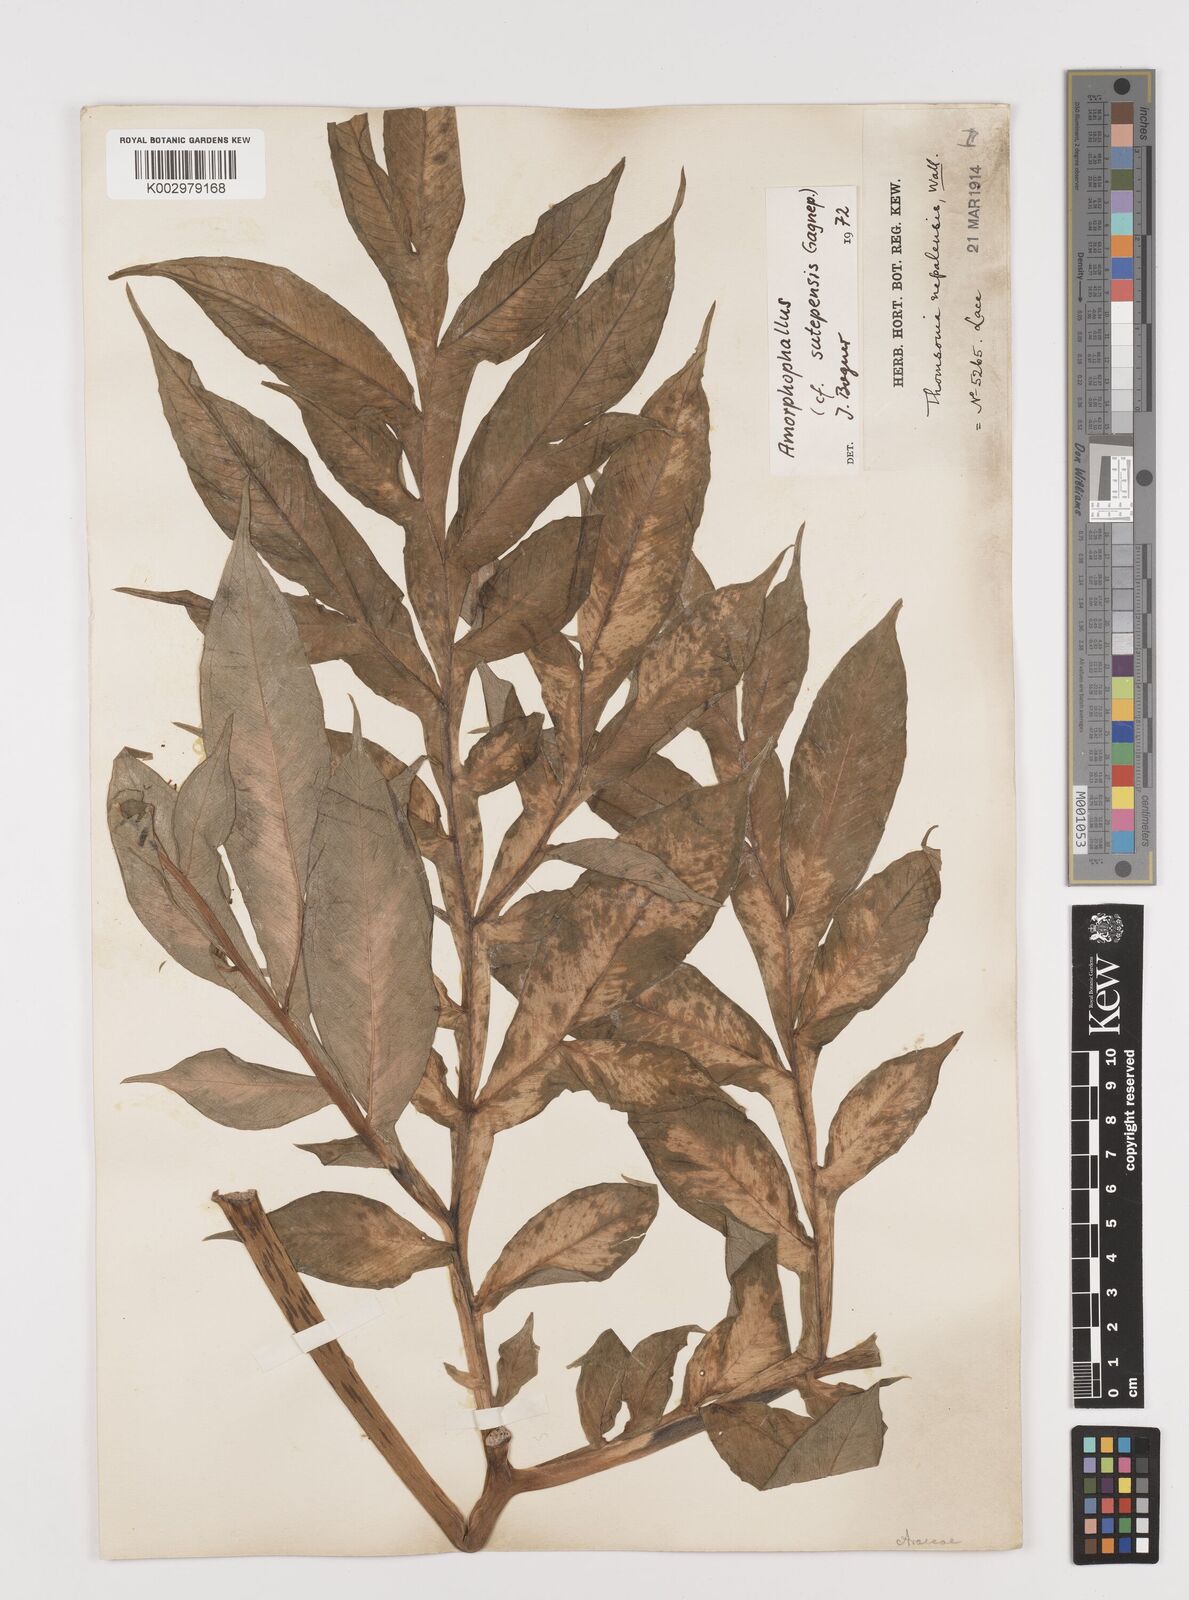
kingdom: Plantae
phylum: Tracheophyta
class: Liliopsida
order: Alismatales
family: Araceae
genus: Amorphophallus
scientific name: Amorphophallus krausei
